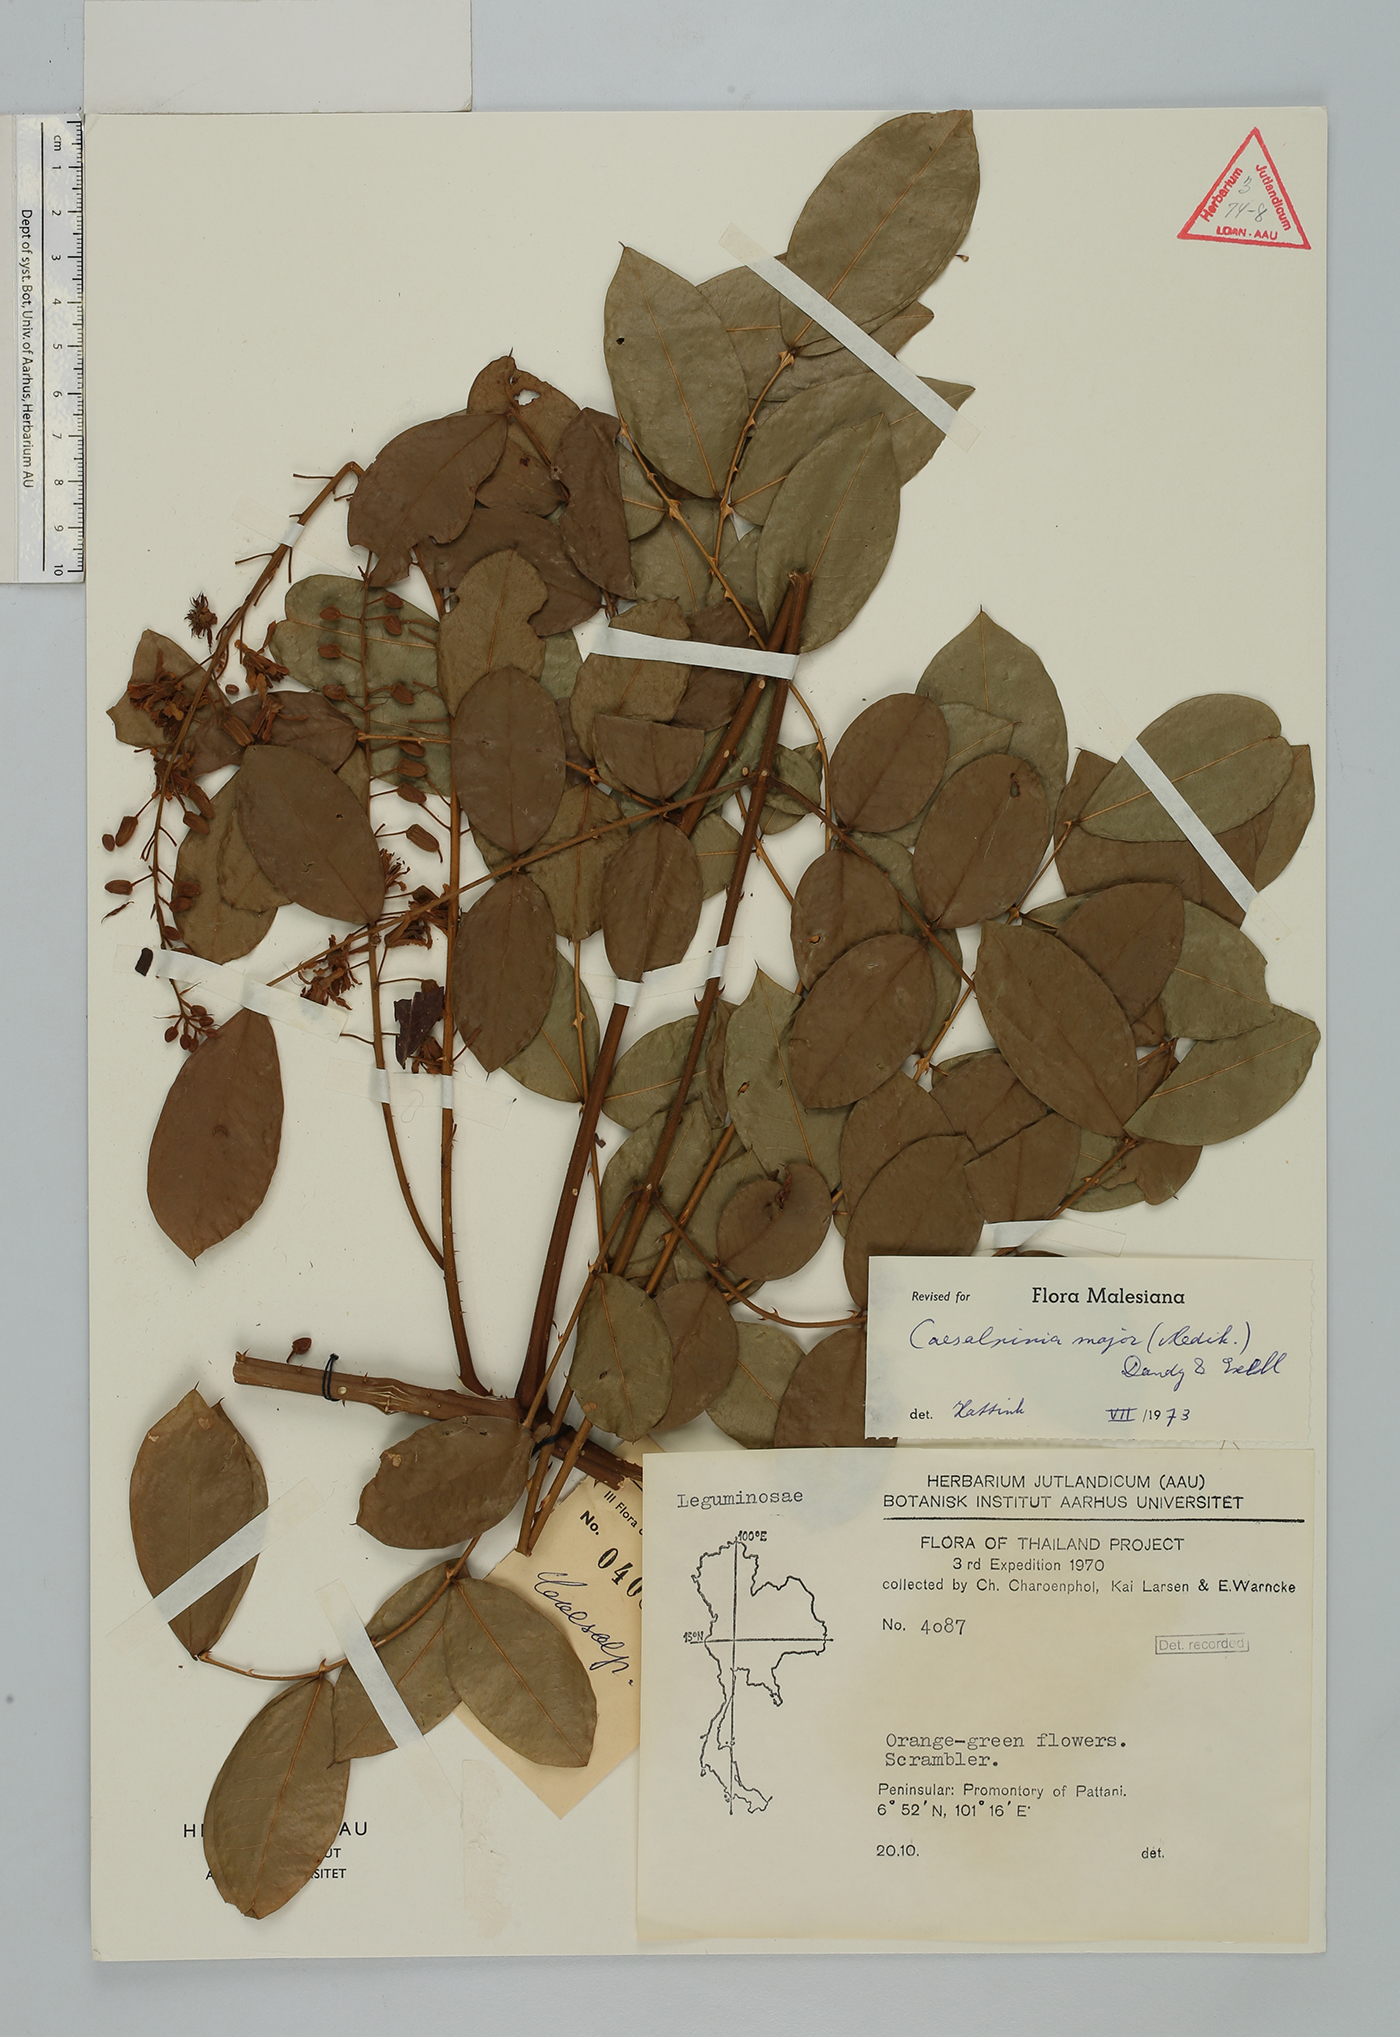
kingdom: Plantae
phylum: Tracheophyta
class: Magnoliopsida
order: Fabales
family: Fabaceae
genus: Guilandina
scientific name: Guilandina major
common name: Hawai'i pearls
